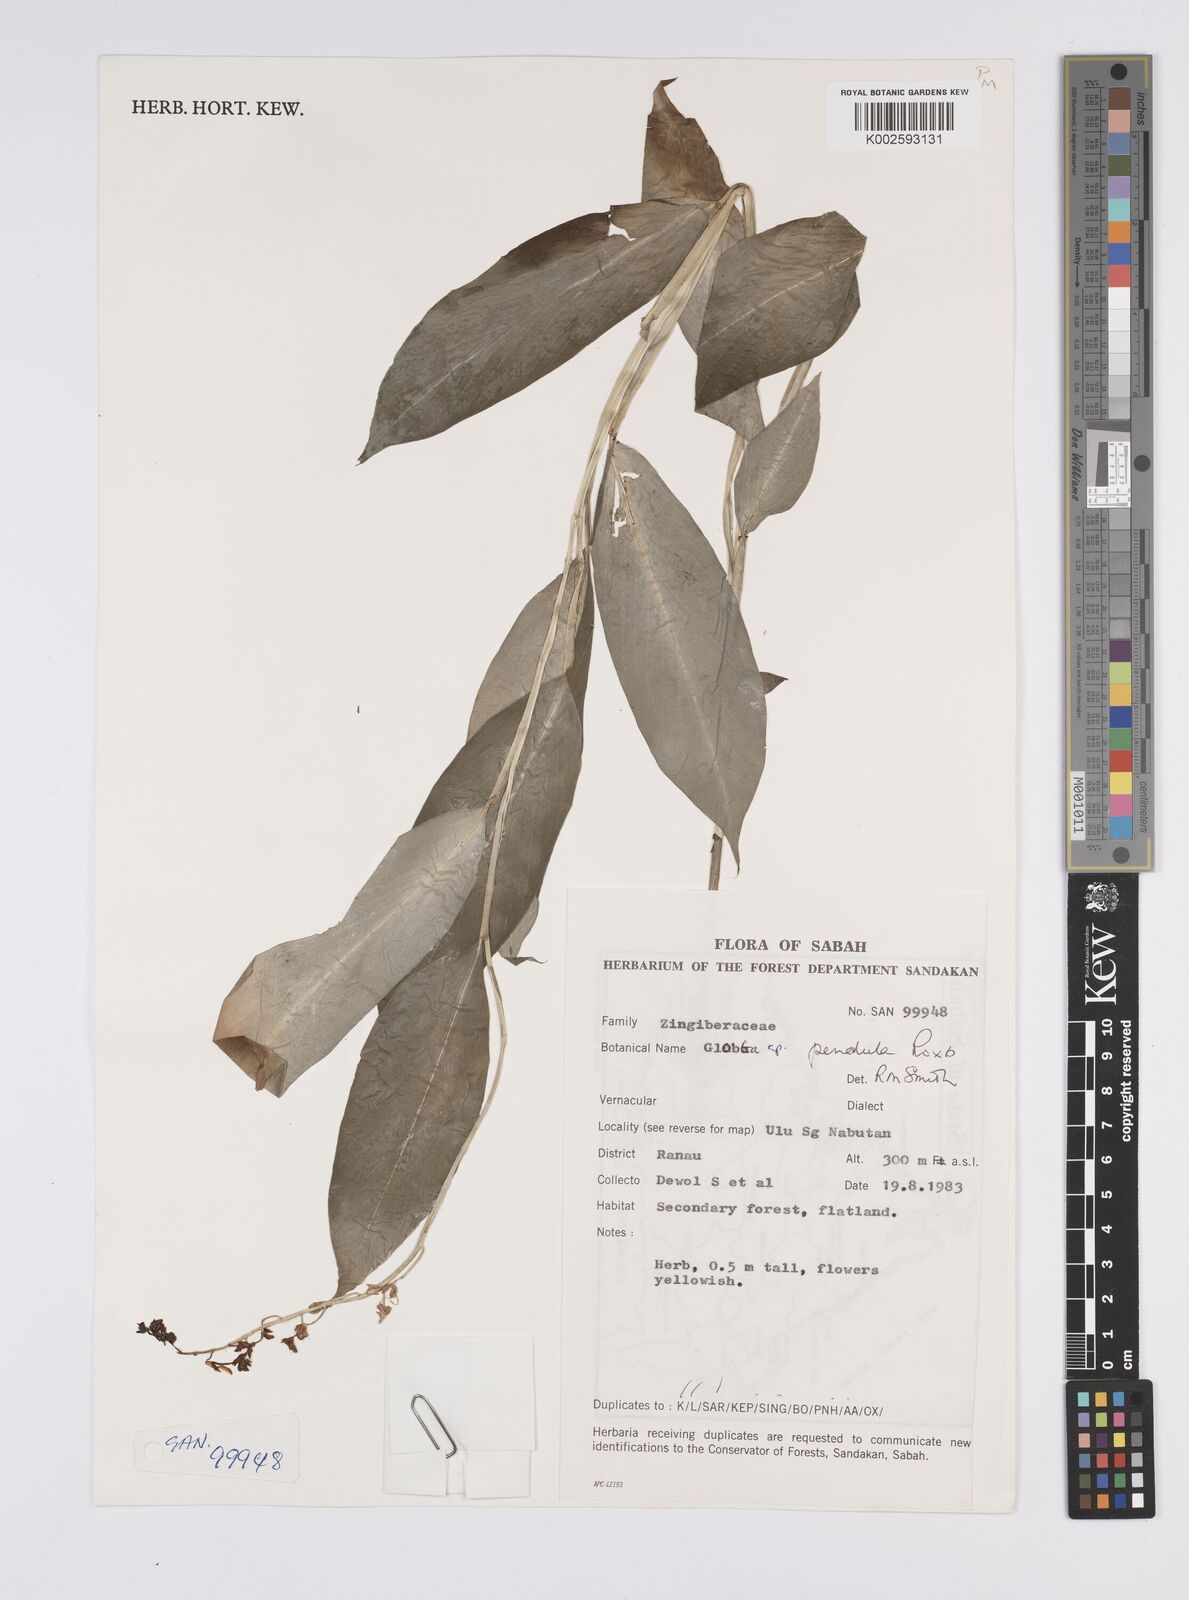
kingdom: Plantae
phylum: Tracheophyta
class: Liliopsida
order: Zingiberales
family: Zingiberaceae
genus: Globba
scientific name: Globba pendula
